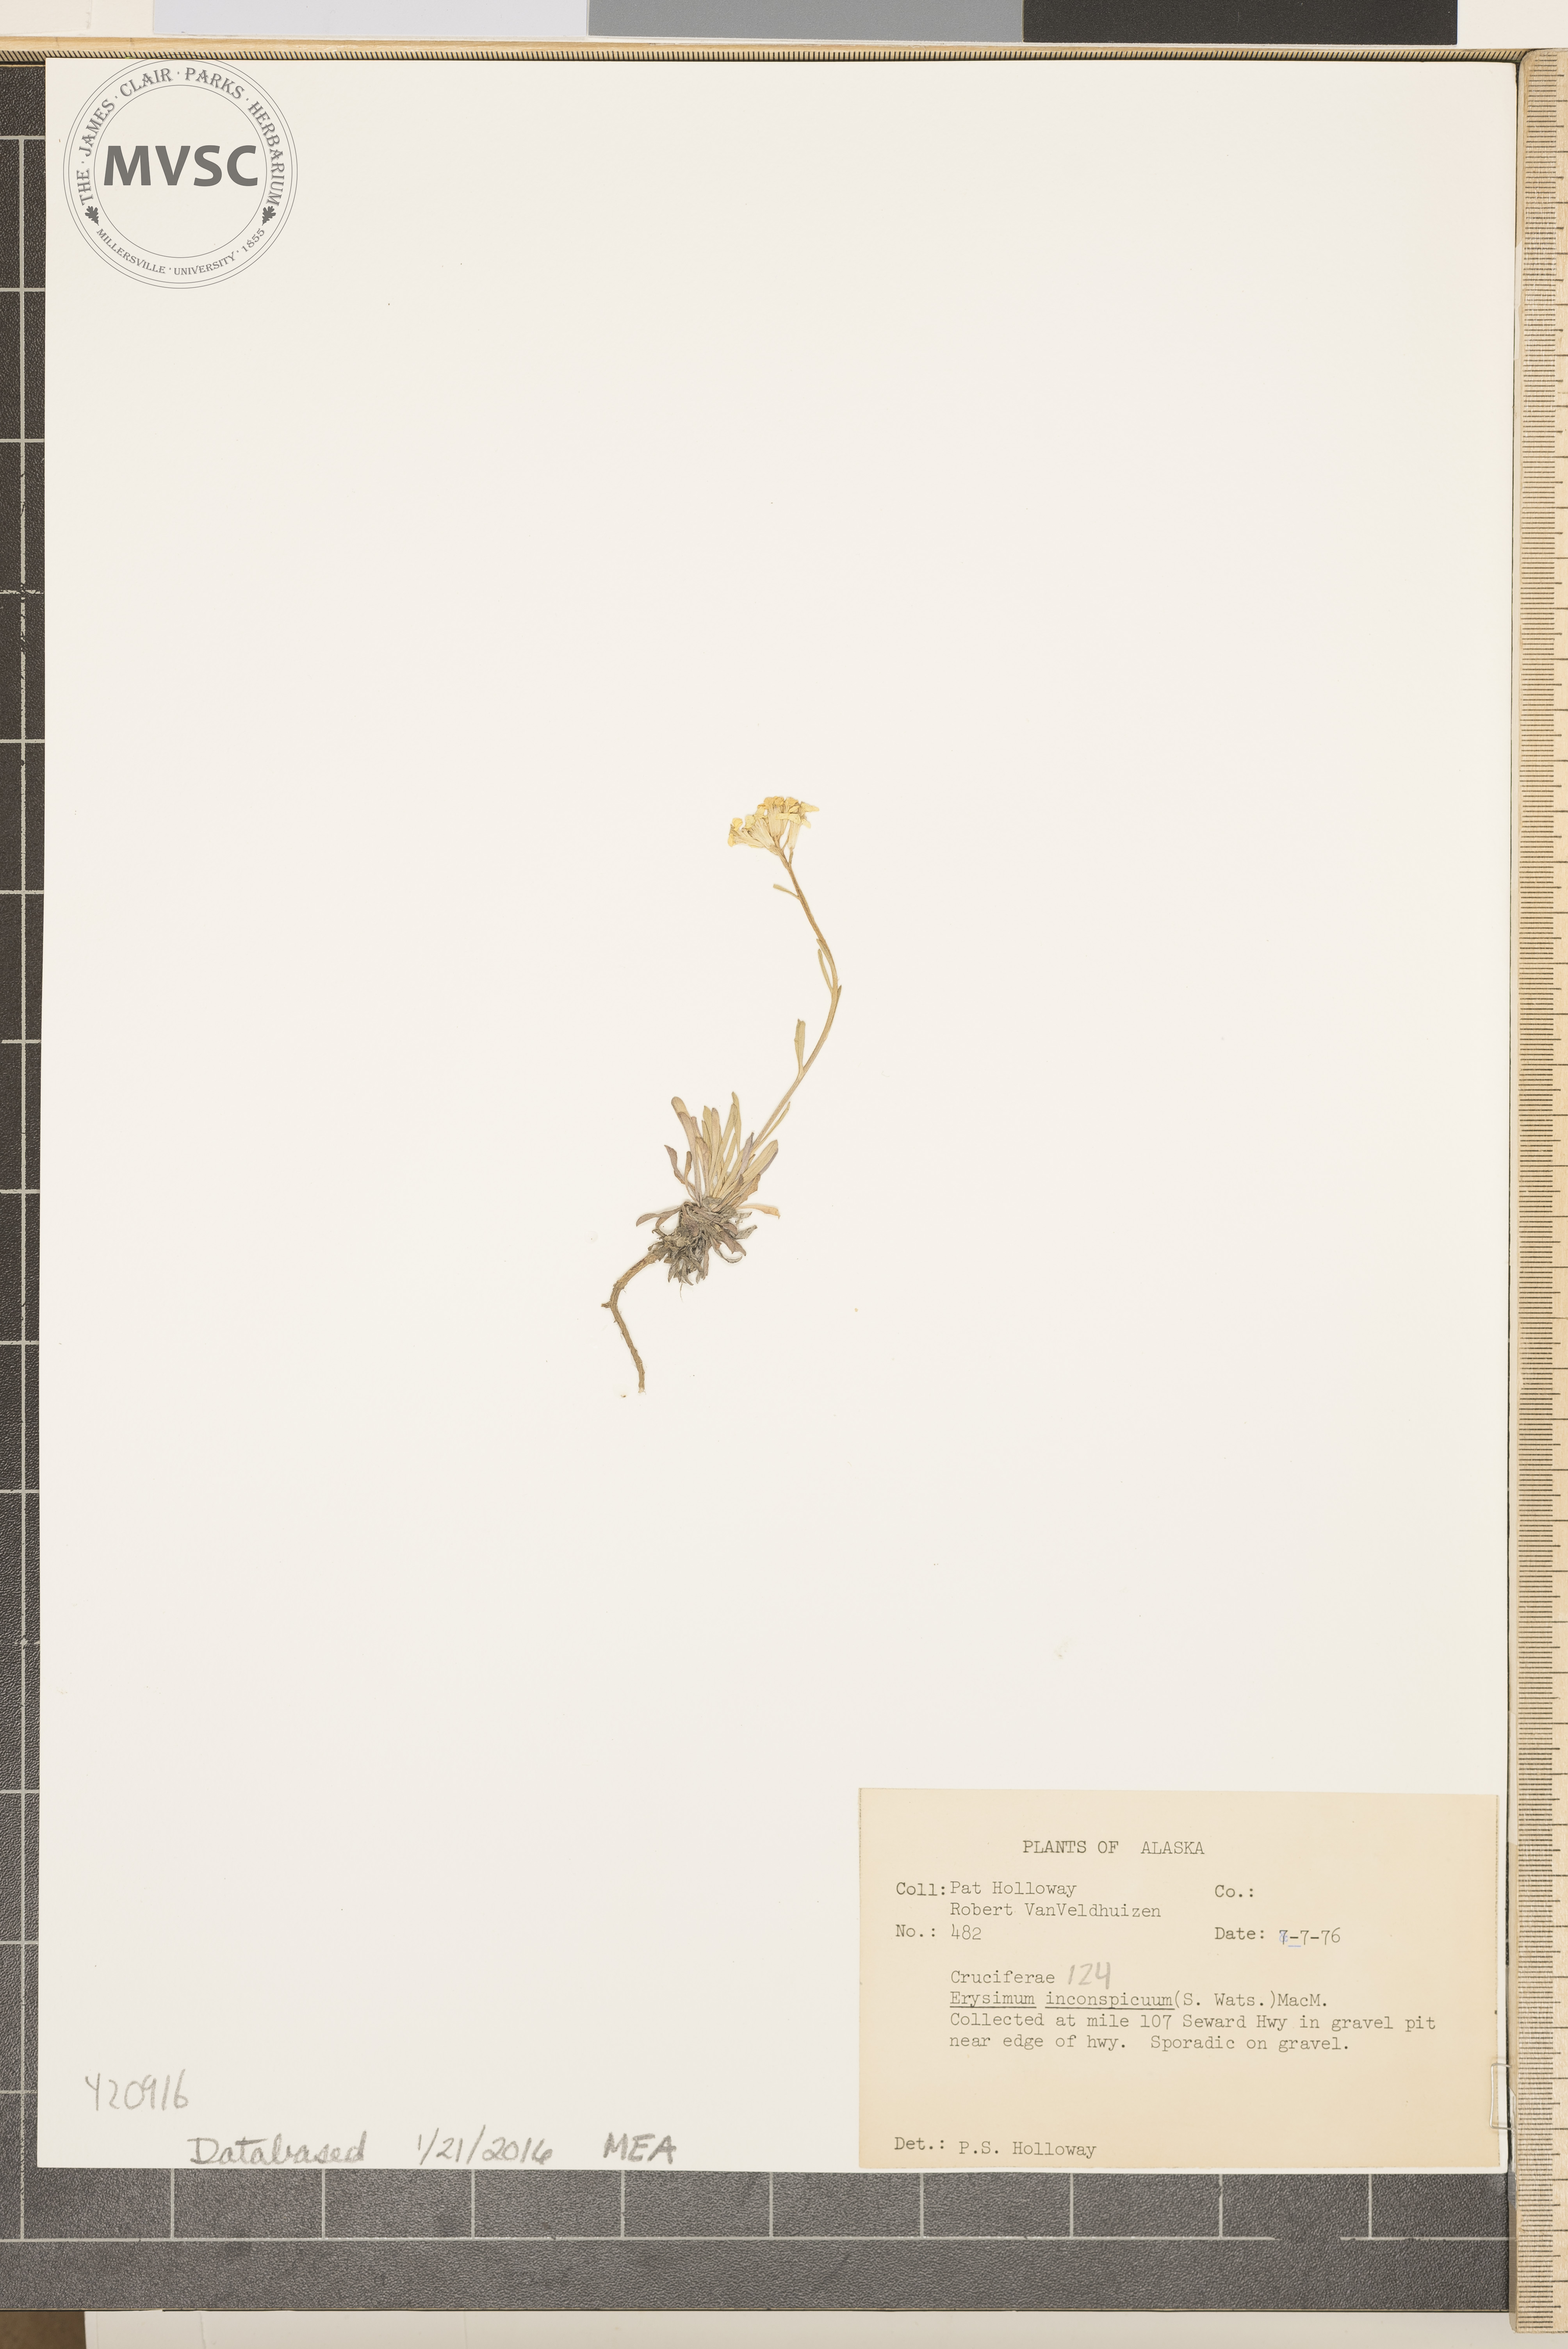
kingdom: Plantae
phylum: Tracheophyta
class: Magnoliopsida
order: Brassicales
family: Brassicaceae
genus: Erysimum
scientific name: Erysimum inconspicuum
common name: Shy wallflower
